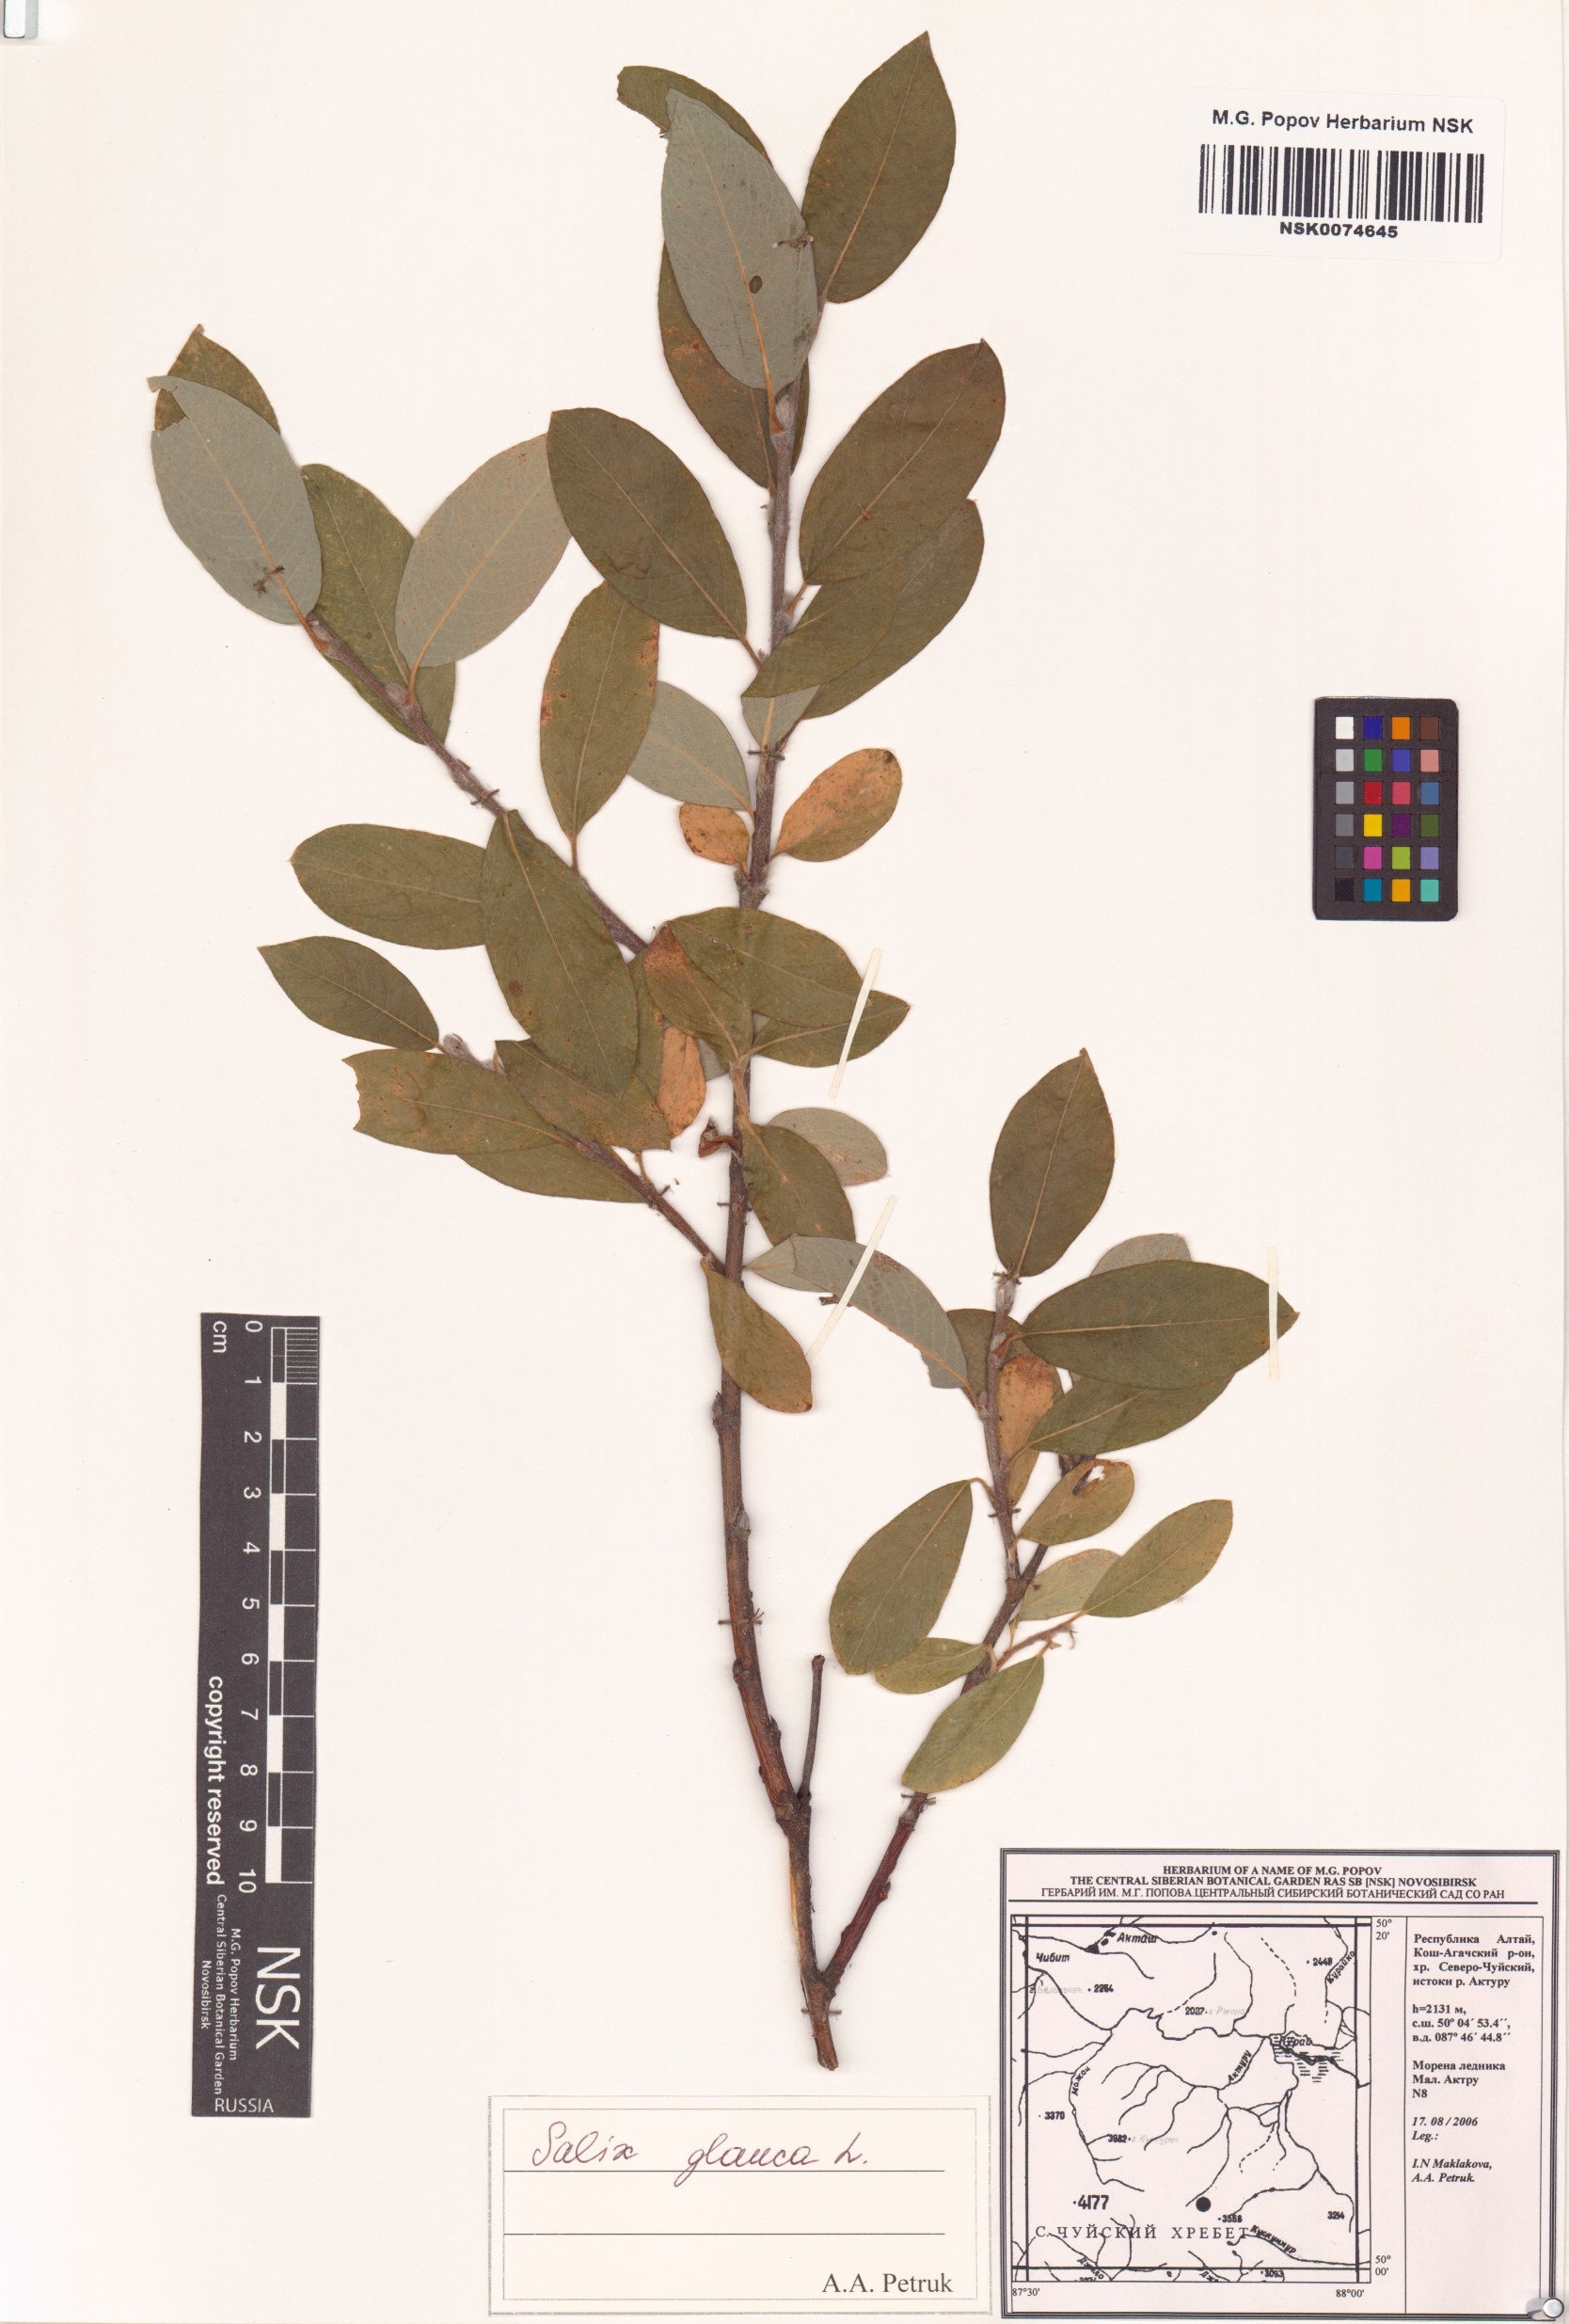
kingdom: Plantae
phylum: Tracheophyta
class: Magnoliopsida
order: Malpighiales
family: Salicaceae
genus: Salix
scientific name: Salix glauca
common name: Glaucous willow
